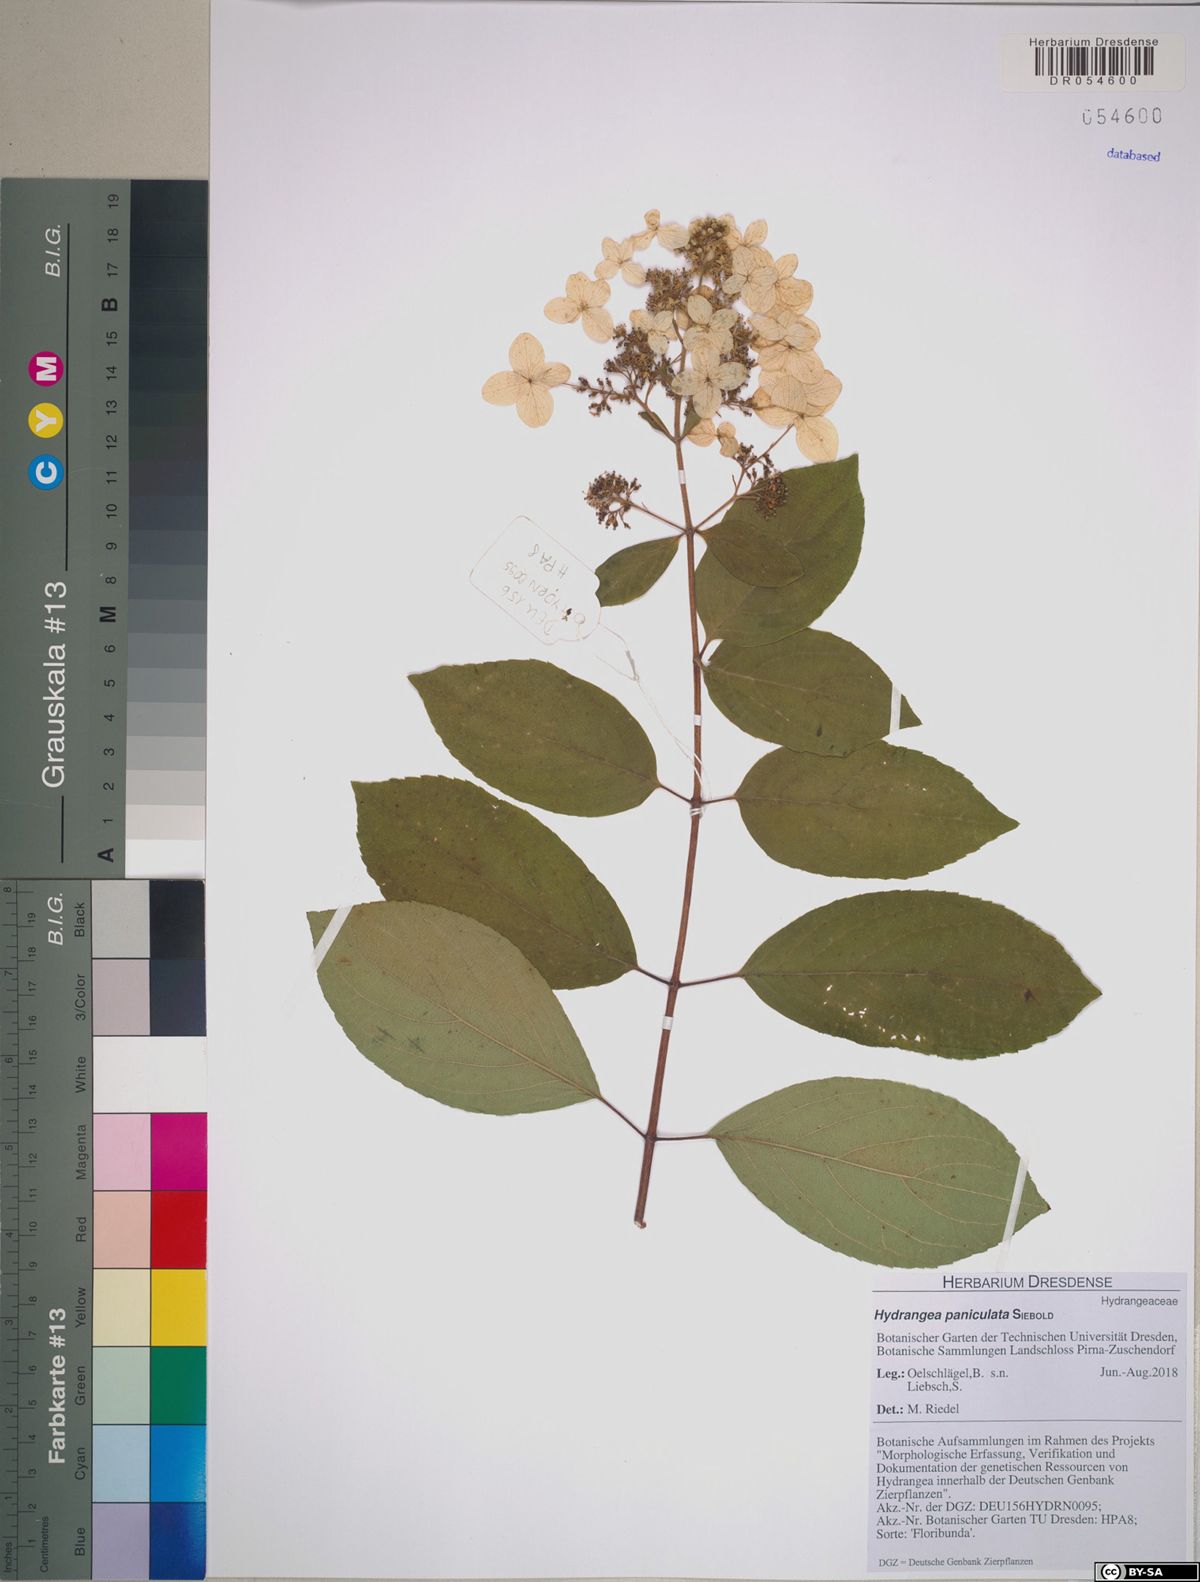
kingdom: Plantae
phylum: Tracheophyta
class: Magnoliopsida
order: Cornales
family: Hydrangeaceae
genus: Hydrangea
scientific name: Hydrangea paniculata
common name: Panicled hydrangea
